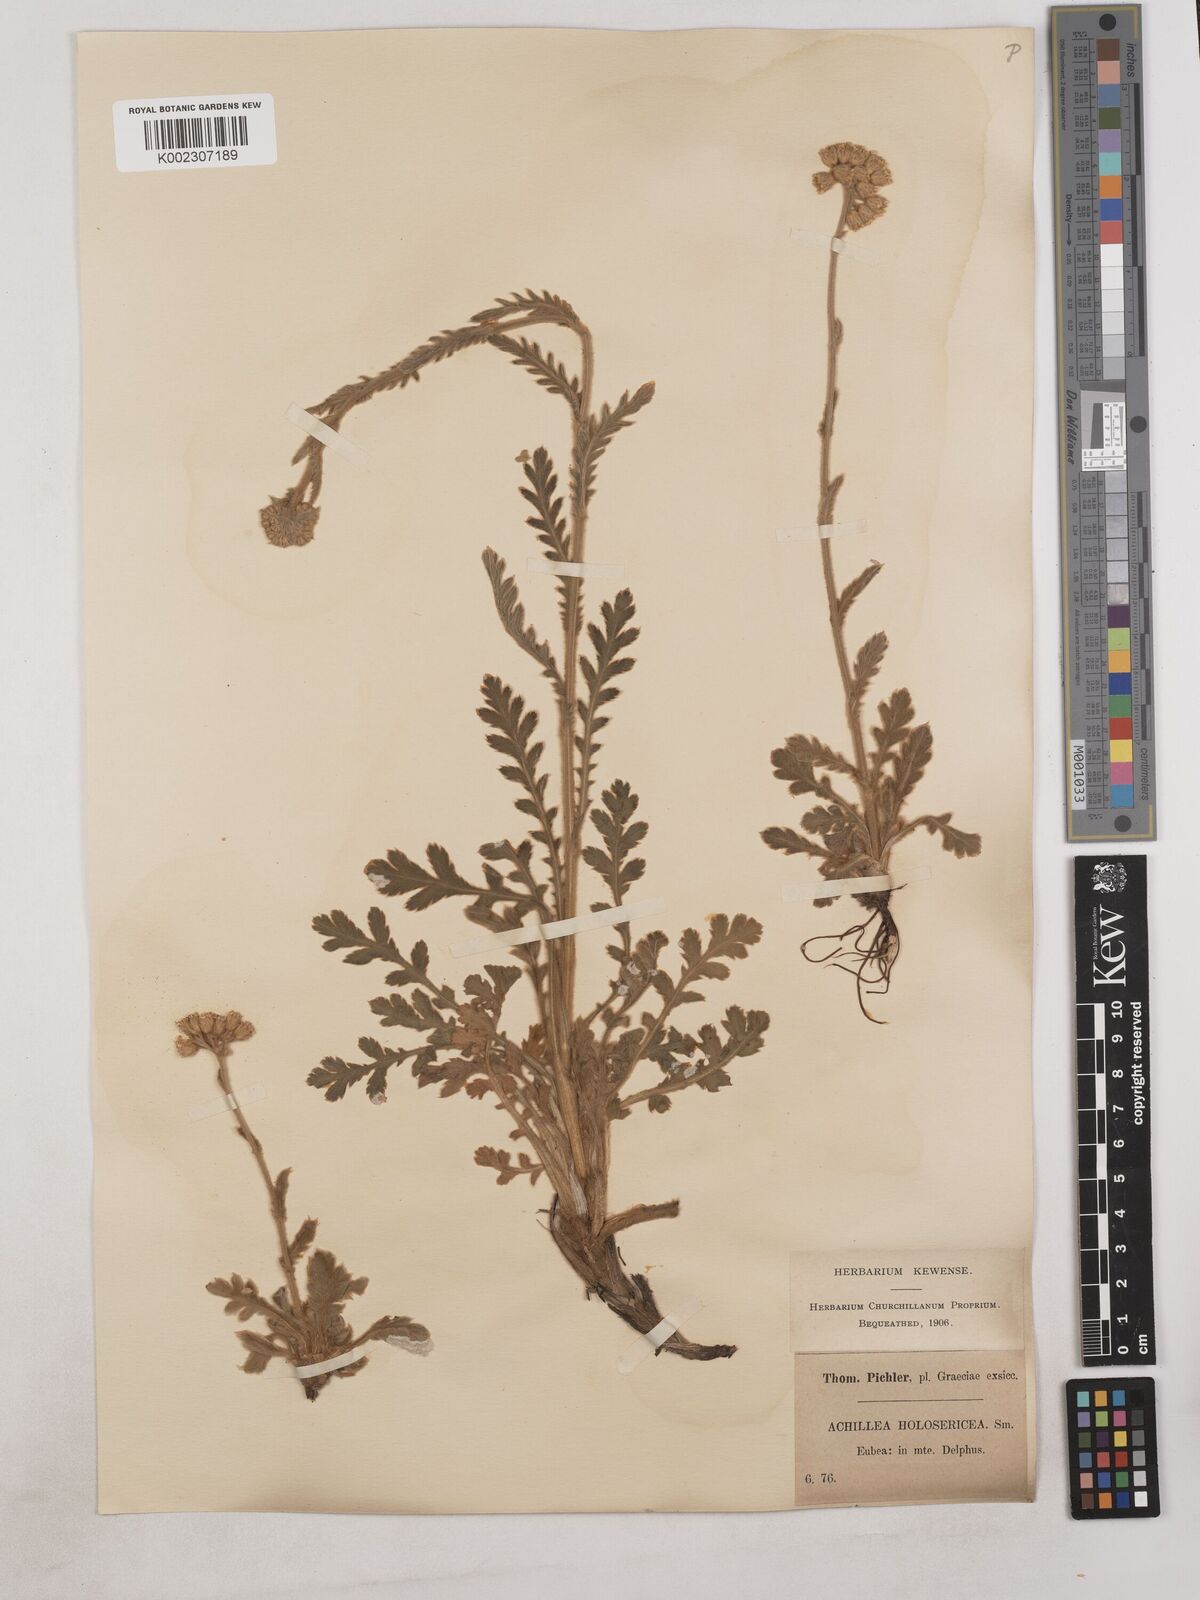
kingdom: Plantae
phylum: Tracheophyta
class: Magnoliopsida
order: Asterales
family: Asteraceae
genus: Achillea
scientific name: Achillea holosericea
